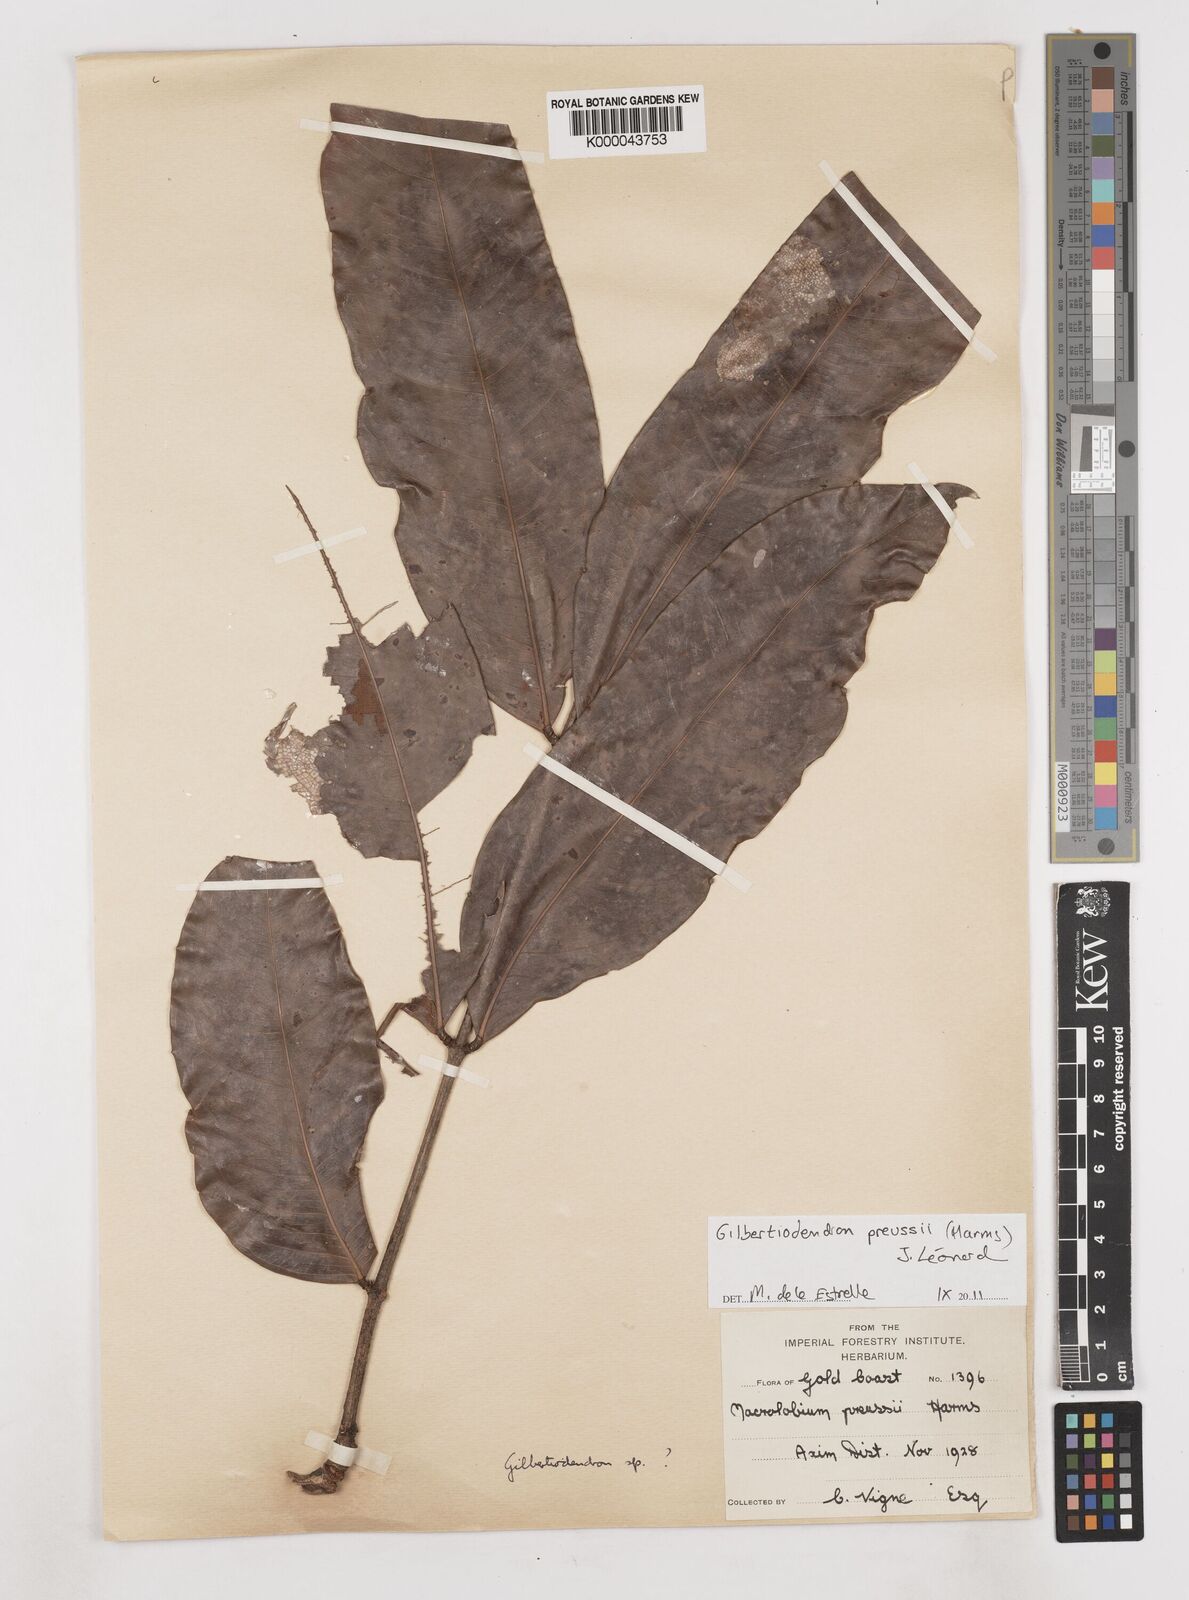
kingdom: Plantae
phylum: Tracheophyta
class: Magnoliopsida
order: Fabales
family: Fabaceae
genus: Gilbertiodendron
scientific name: Gilbertiodendron
